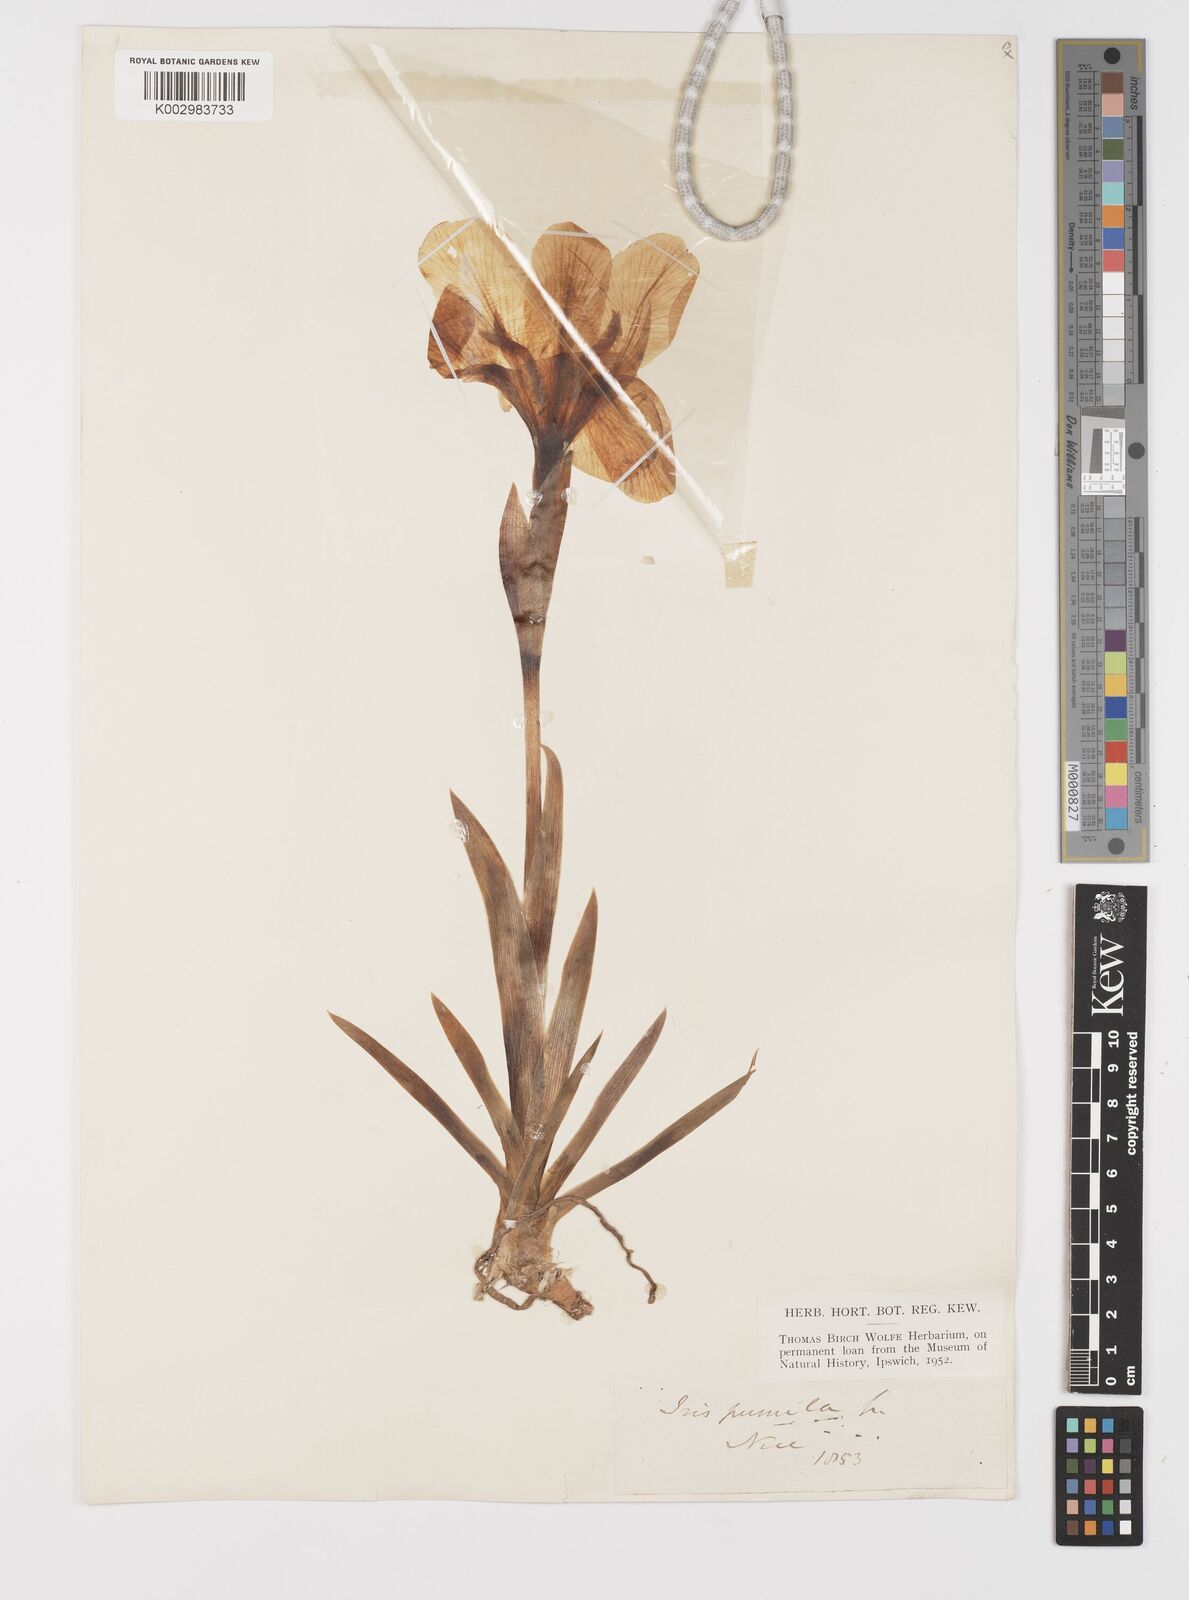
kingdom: Plantae
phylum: Tracheophyta
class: Liliopsida
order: Asparagales
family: Iridaceae
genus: Iris
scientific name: Iris lutescens
